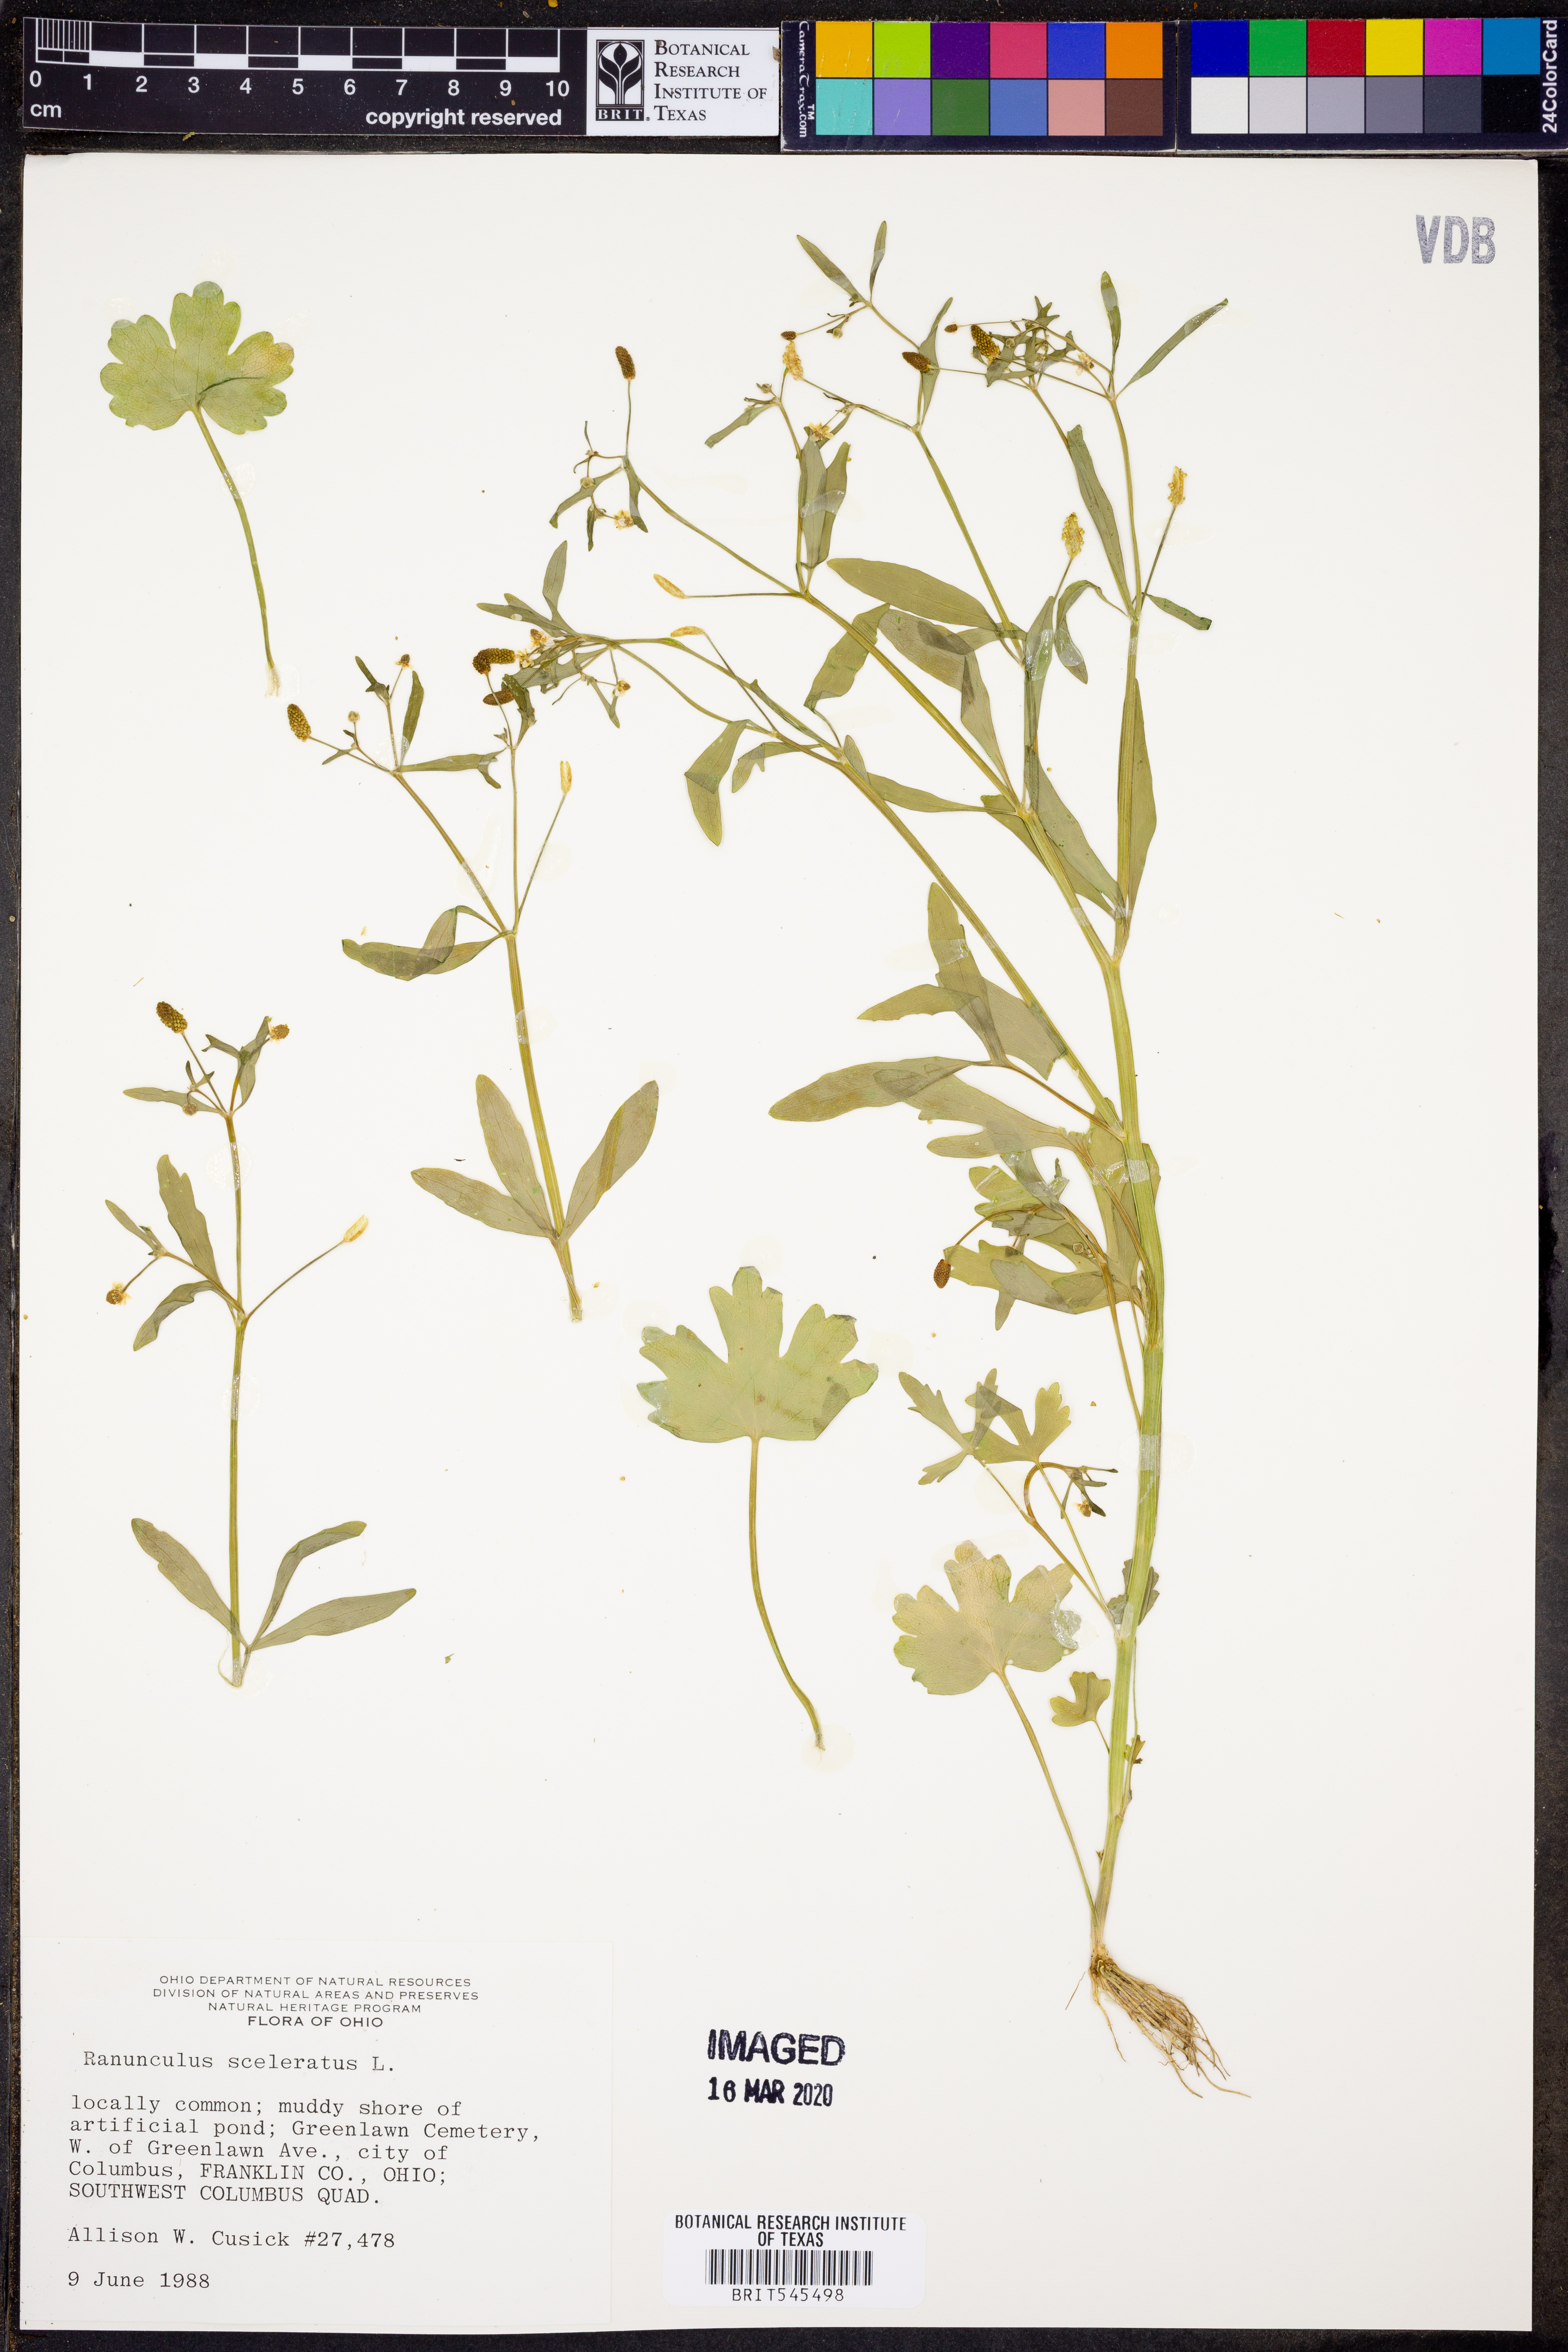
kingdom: Plantae
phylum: Tracheophyta
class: Magnoliopsida
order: Ranunculales
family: Ranunculaceae
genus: Ranunculus
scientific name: Ranunculus sceleratus
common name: Celery-leaved buttercup
